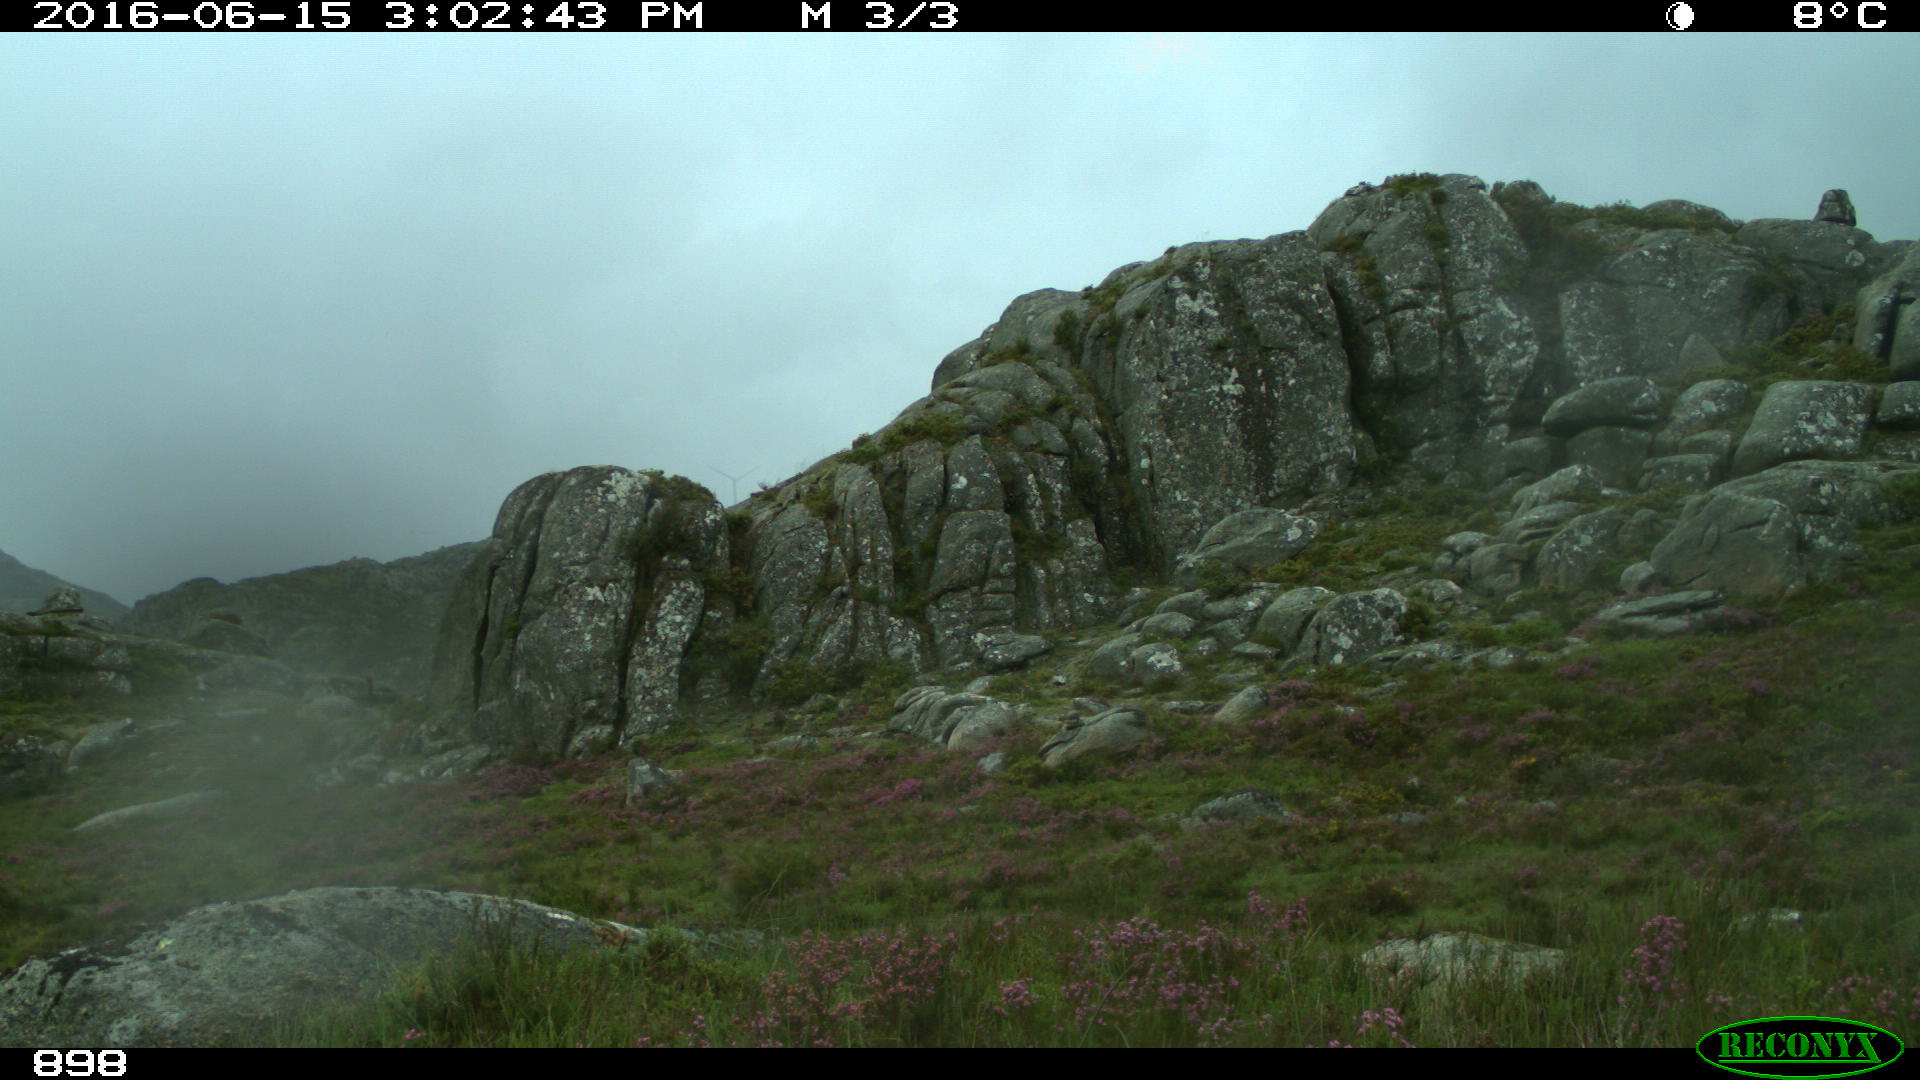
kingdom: Animalia
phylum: Chordata
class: Mammalia
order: Perissodactyla
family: Equidae
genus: Equus
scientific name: Equus caballus
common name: Horse
